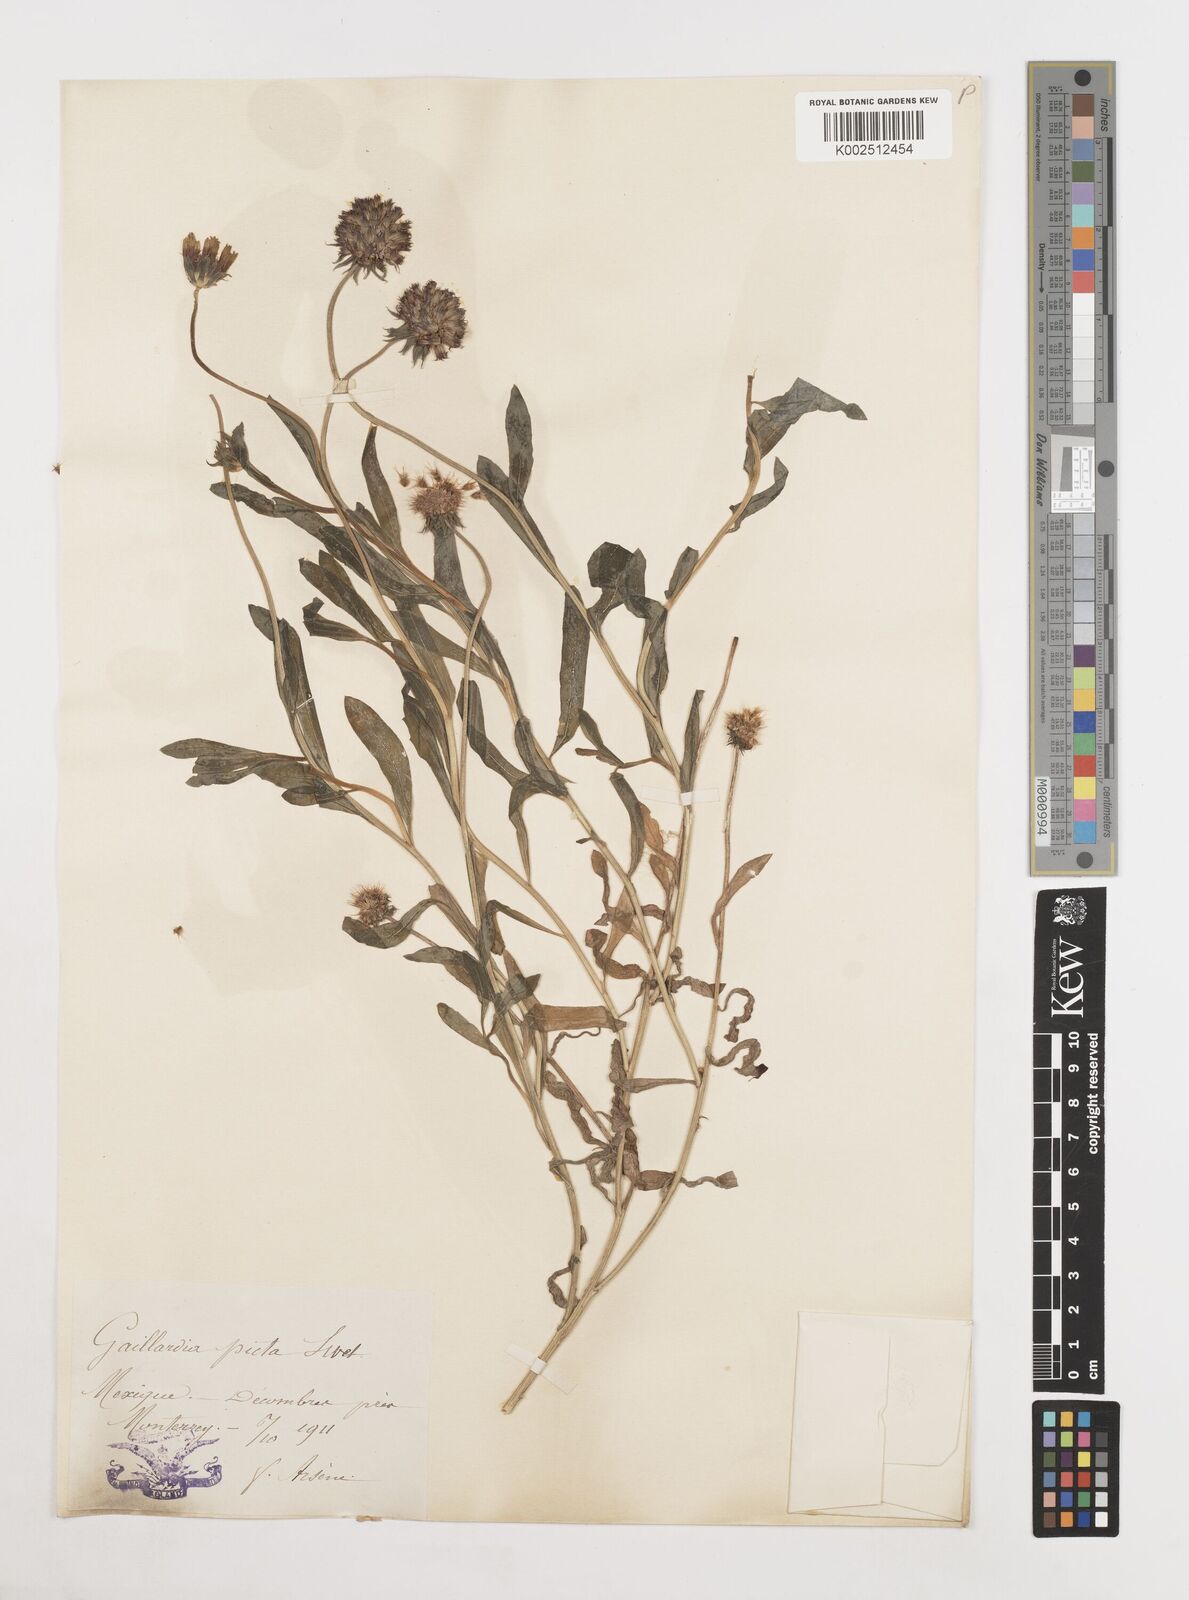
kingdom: Plantae
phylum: Tracheophyta
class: Magnoliopsida
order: Asterales
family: Asteraceae
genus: Gaillardia
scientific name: Gaillardia pulchella
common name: Firewheel
